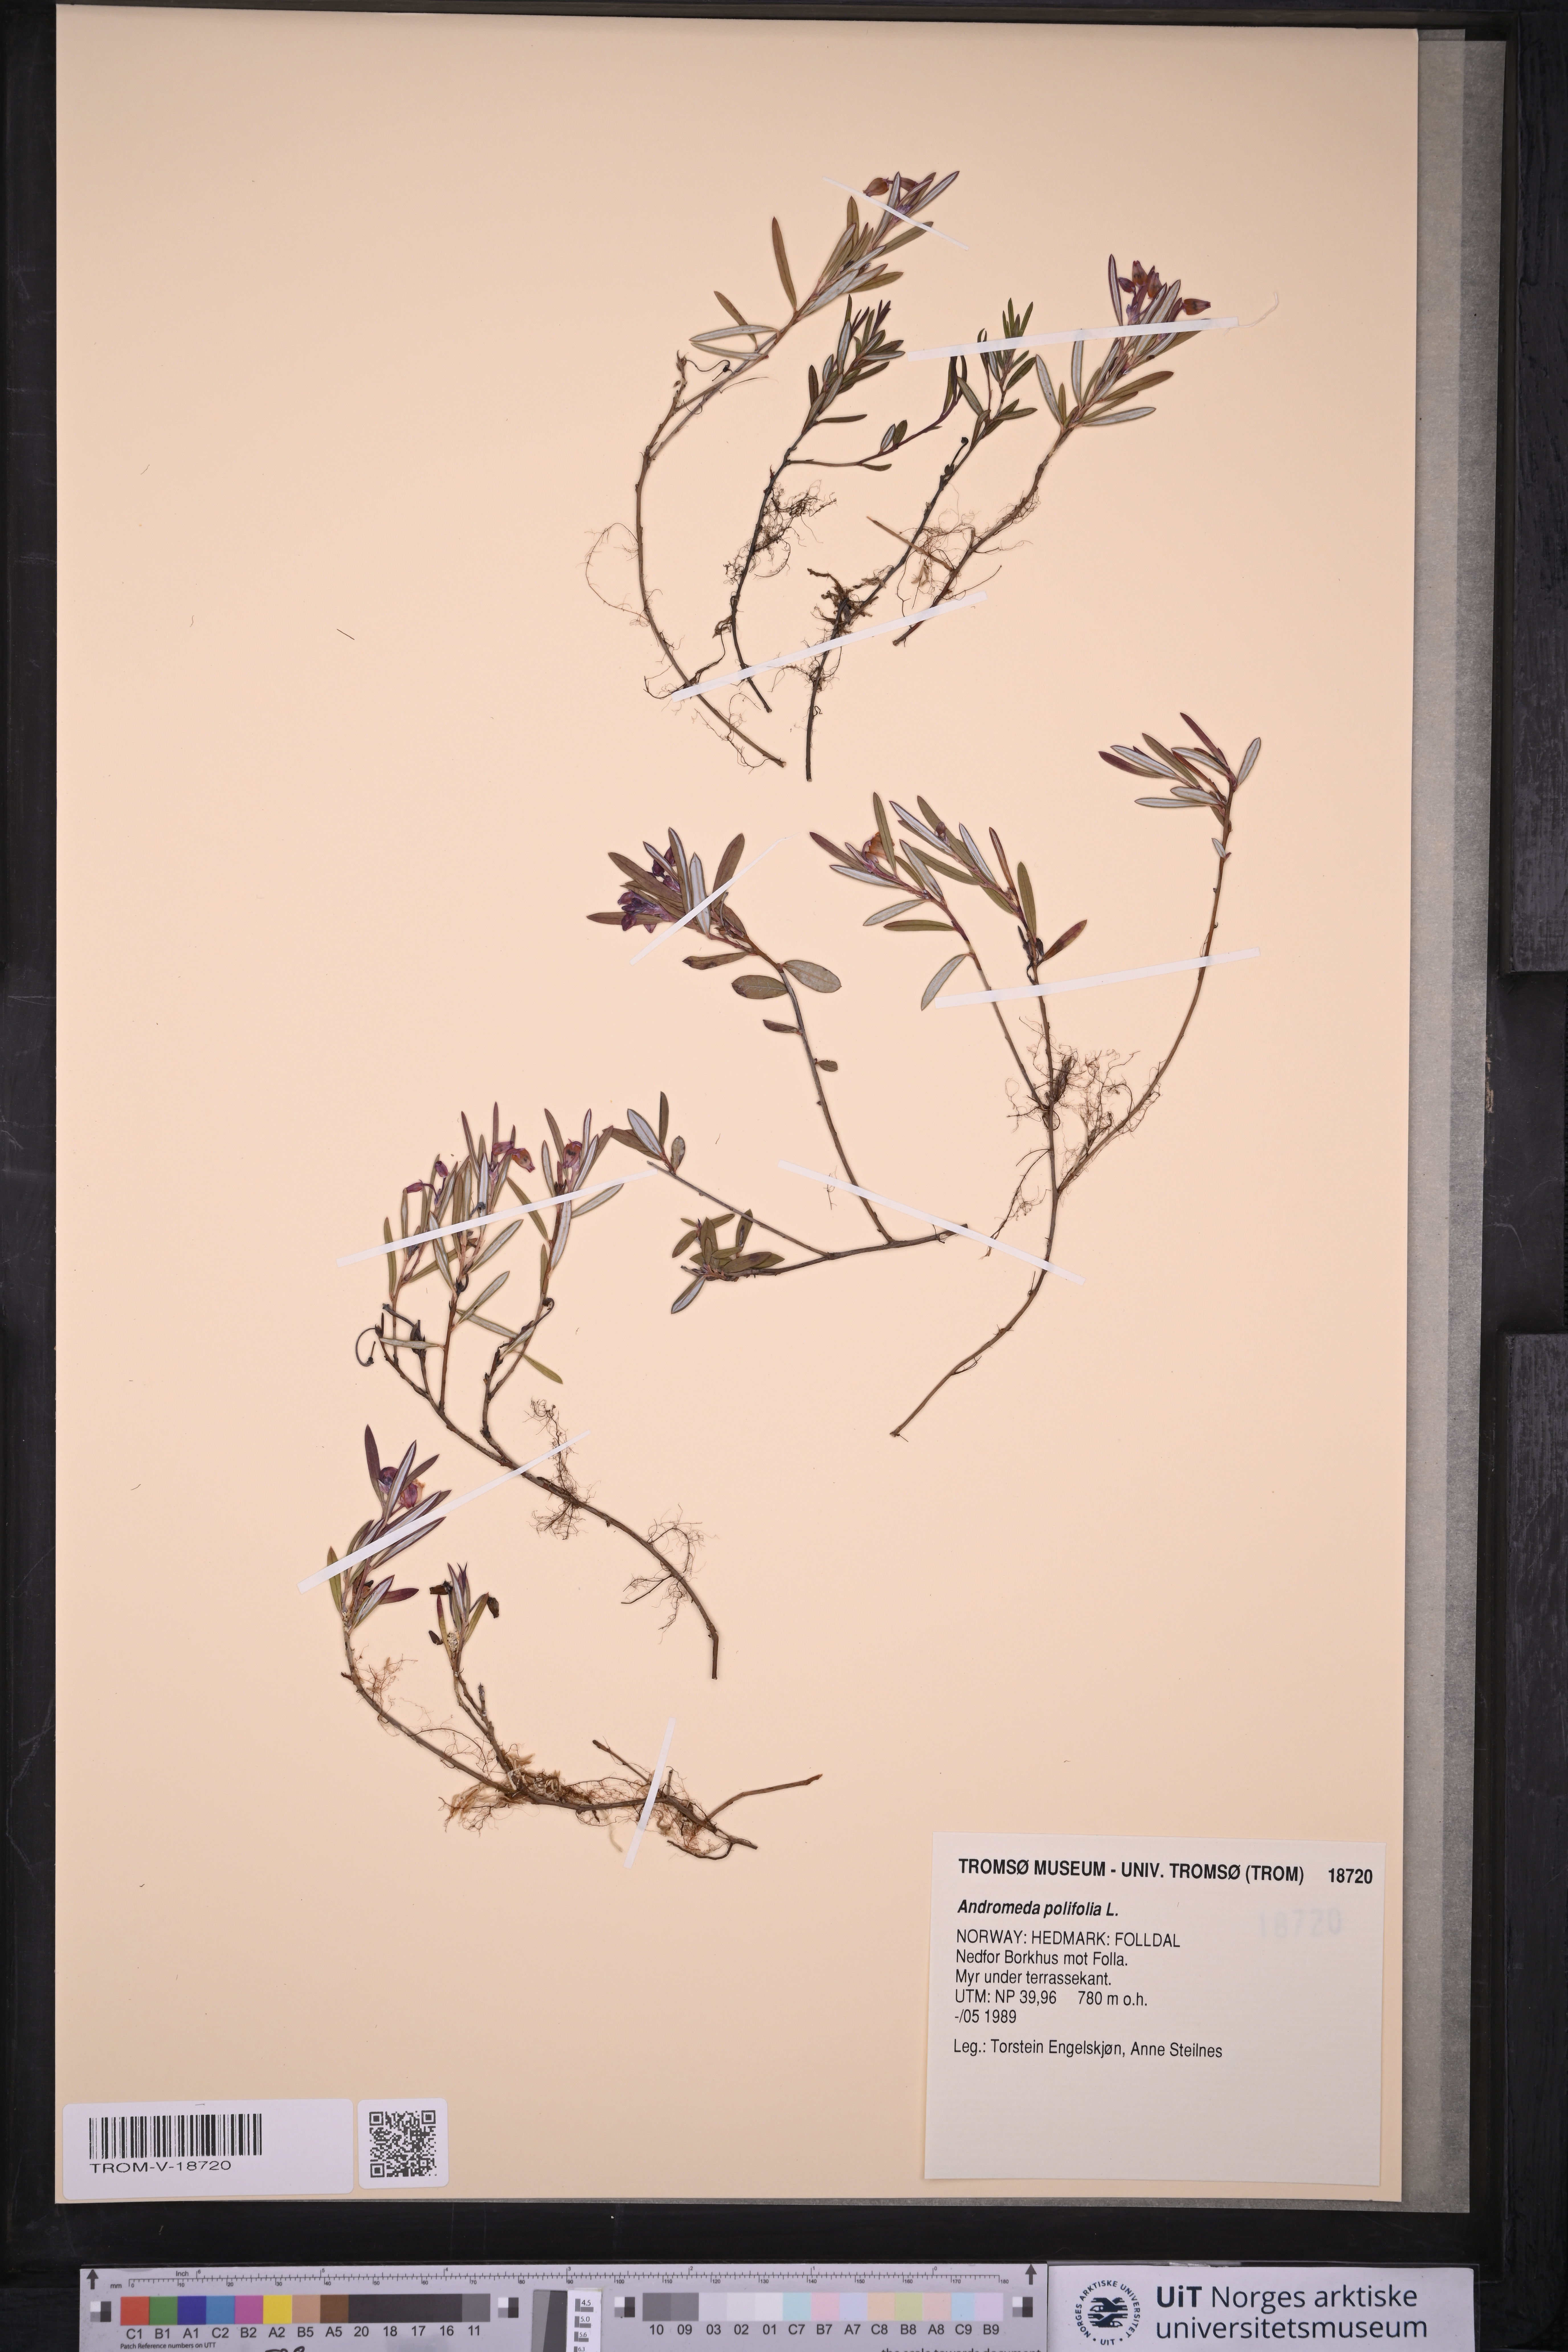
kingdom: Plantae
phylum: Tracheophyta
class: Magnoliopsida
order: Ericales
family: Ericaceae
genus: Andromeda
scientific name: Andromeda polifolia
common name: Bog-rosemary
